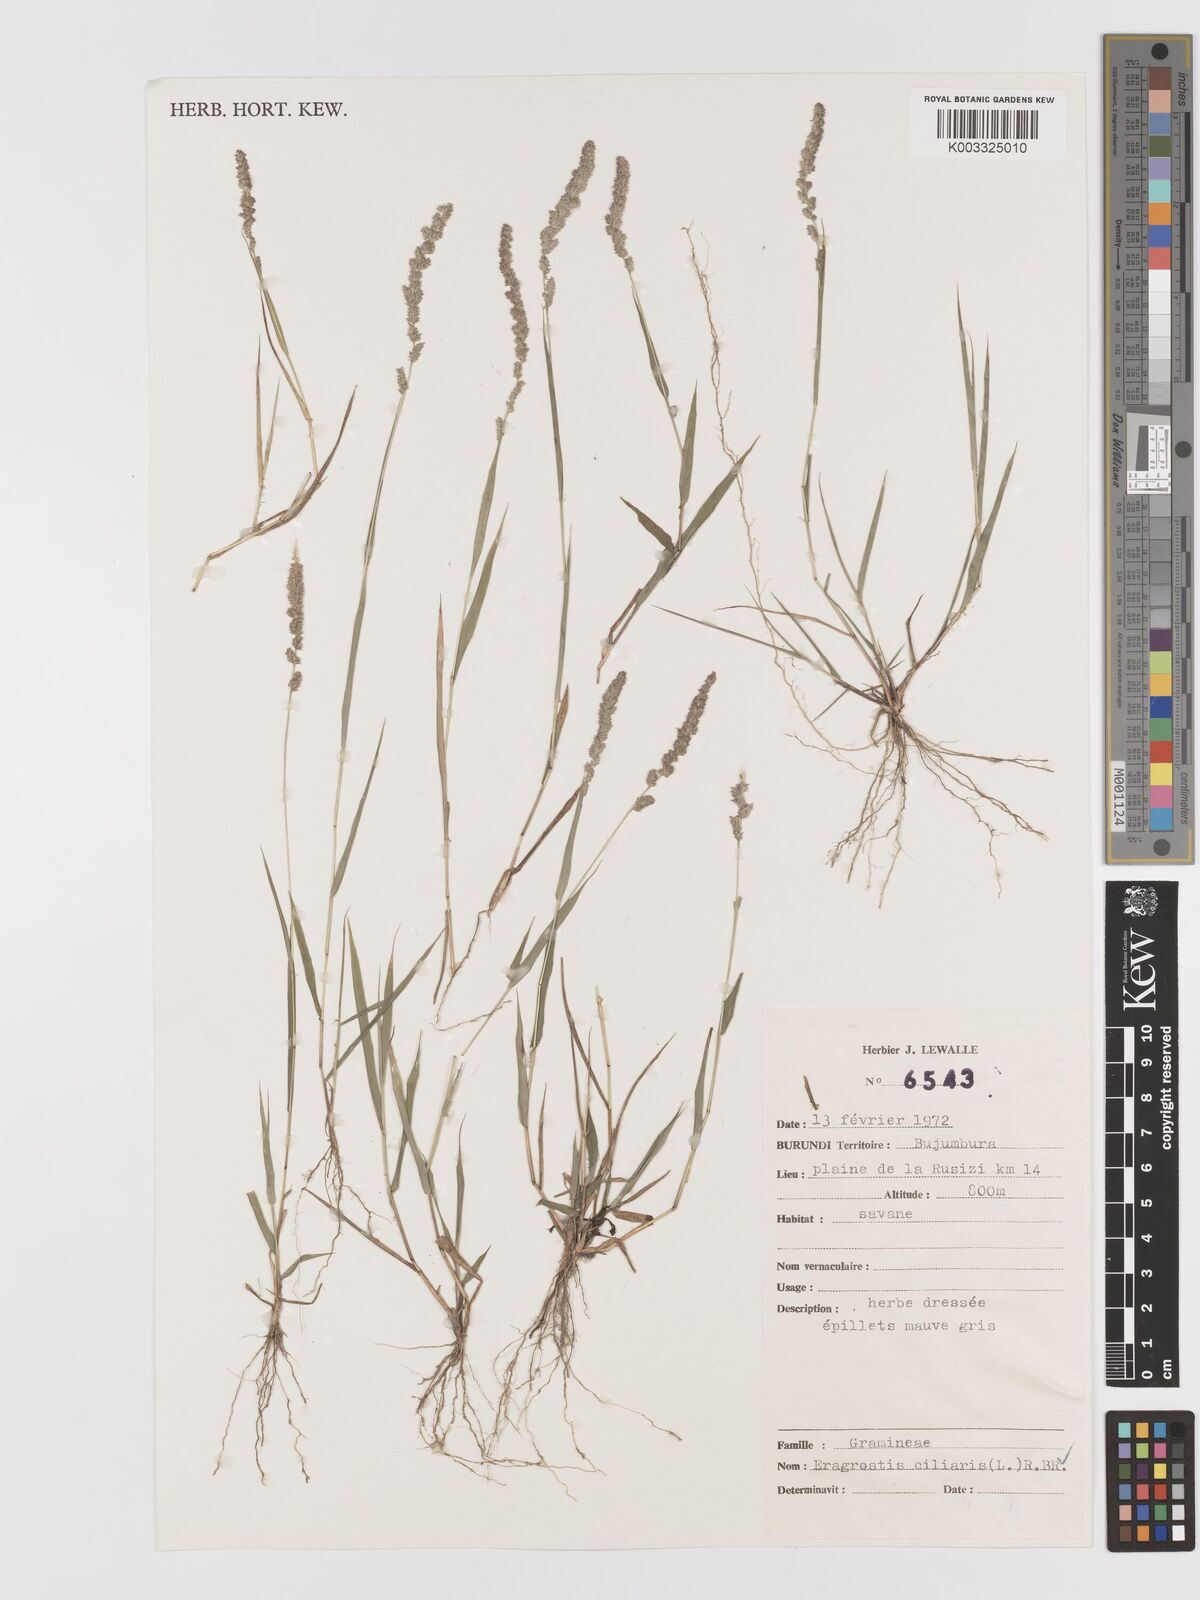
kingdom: Plantae
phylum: Tracheophyta
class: Liliopsida
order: Poales
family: Poaceae
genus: Eragrostis
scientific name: Eragrostis ciliaris
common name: Gophertail lovegrass
